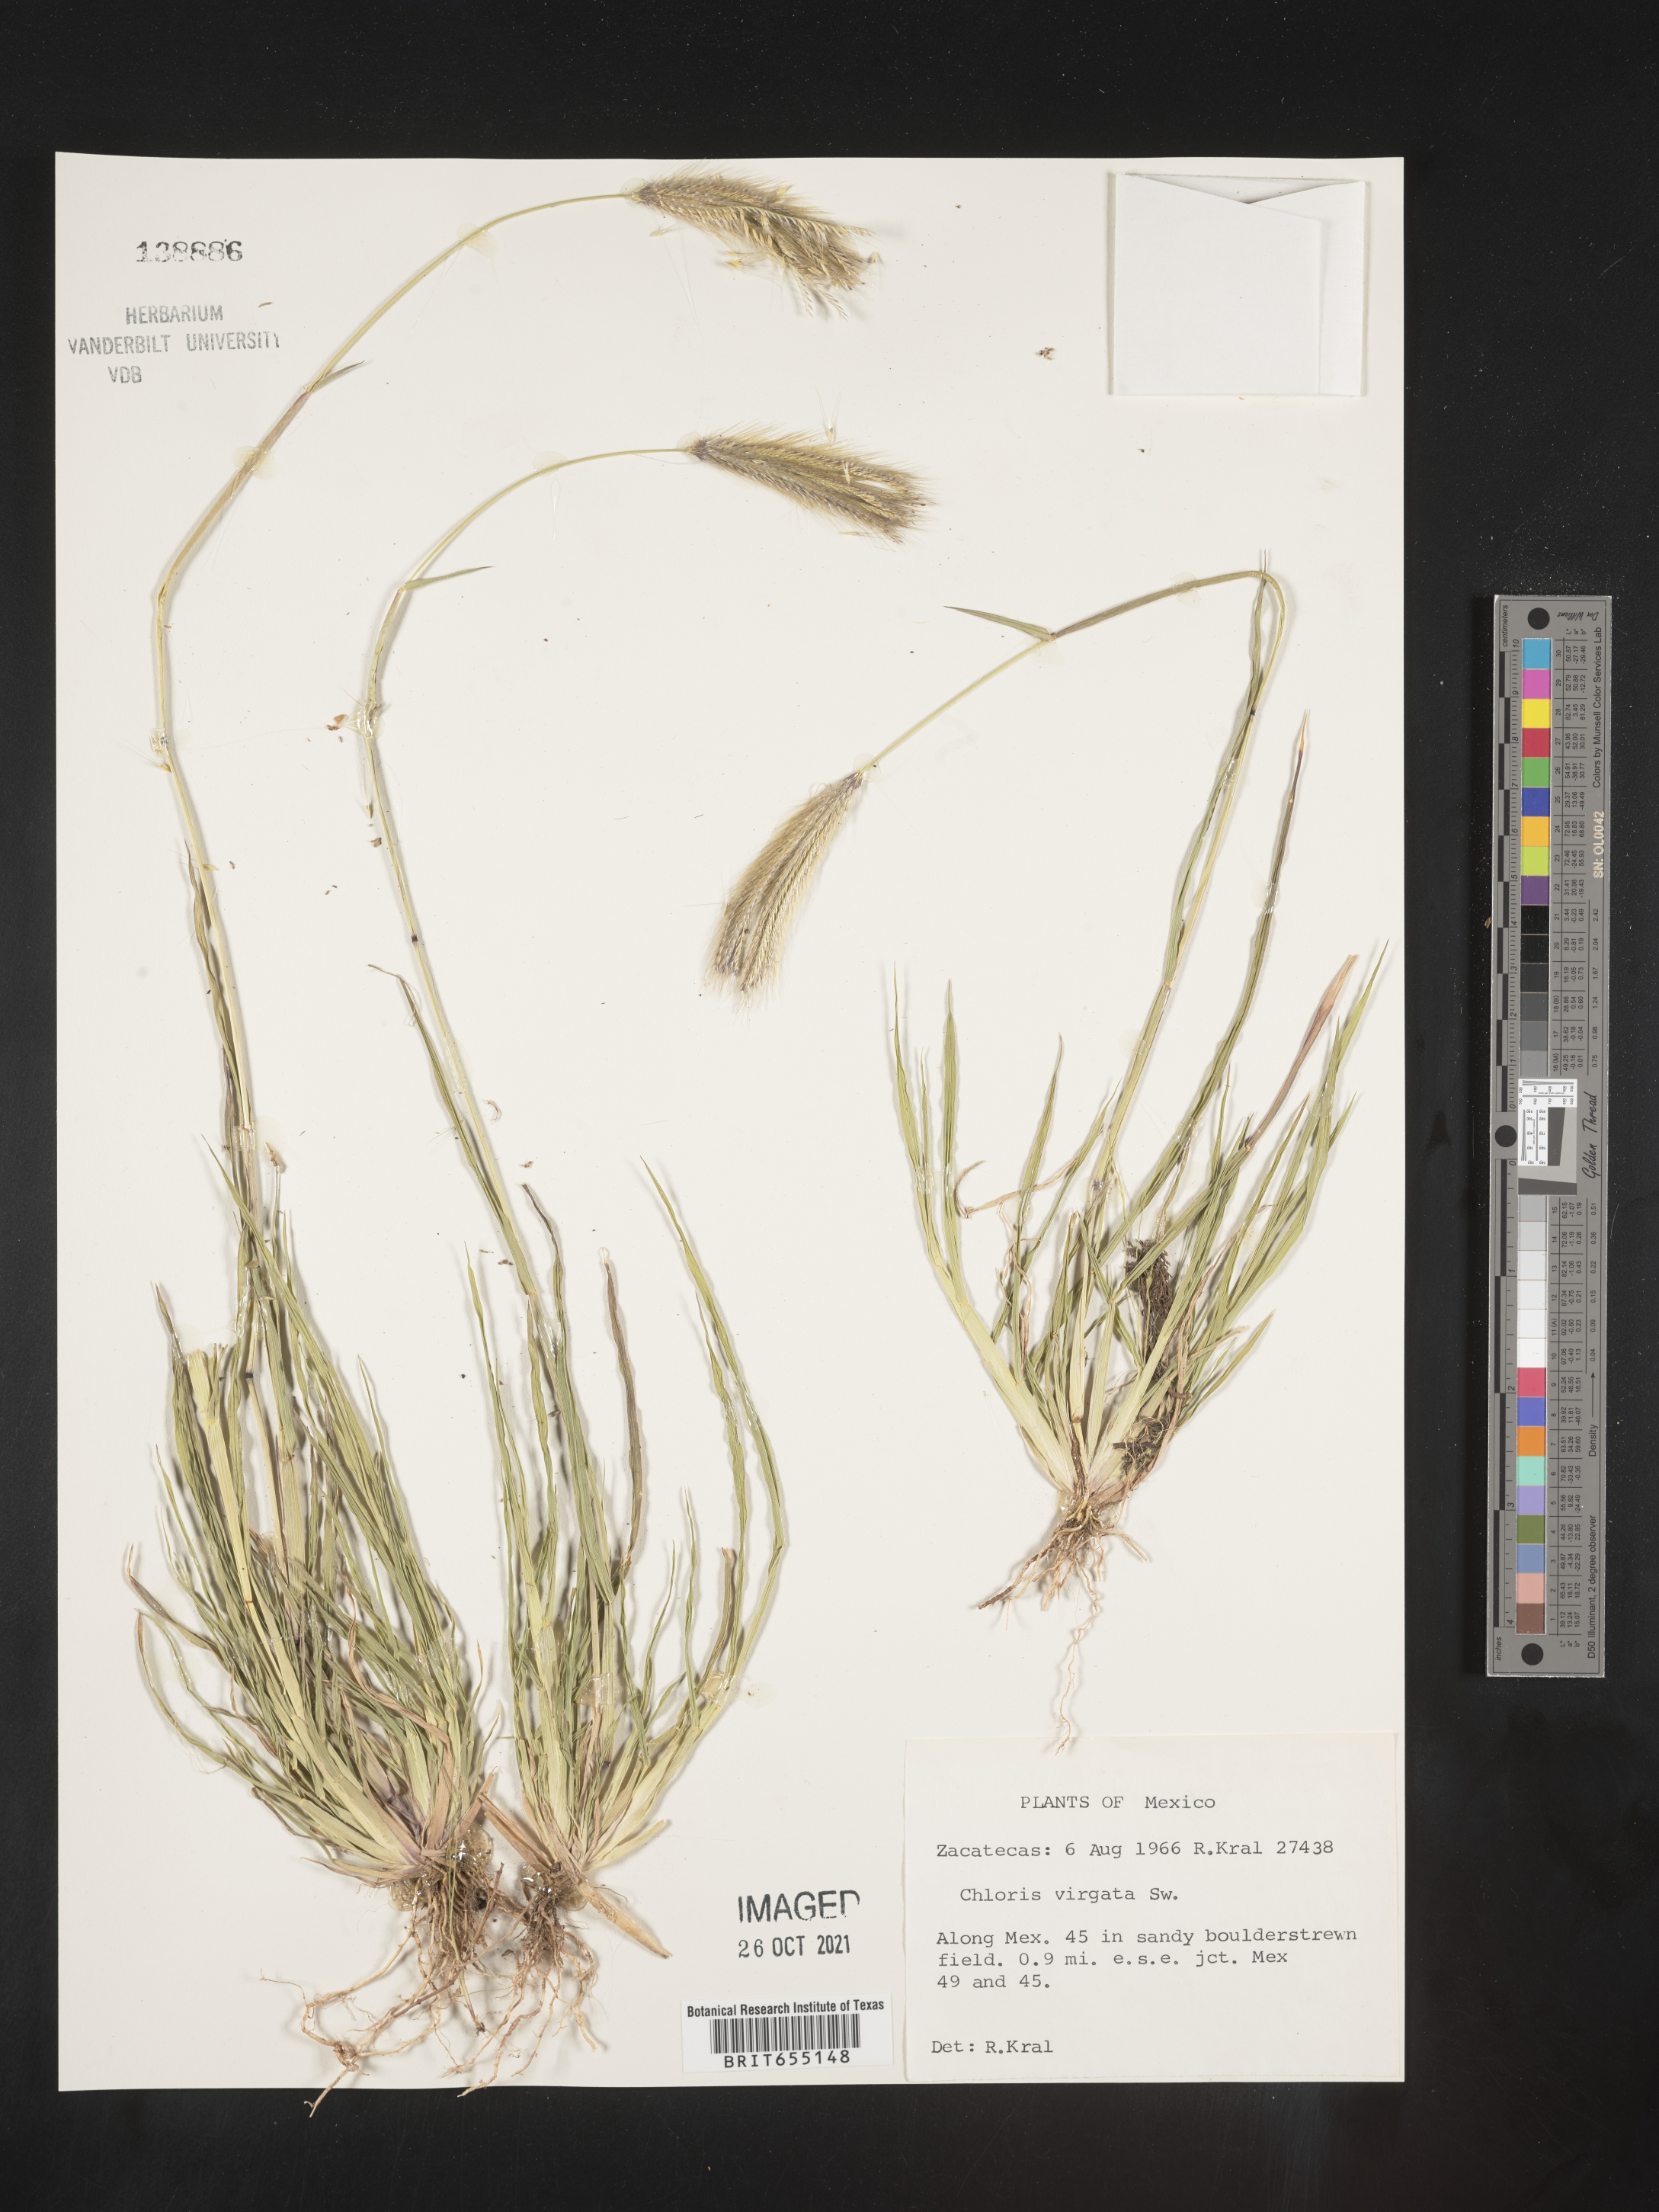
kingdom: Plantae
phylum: Tracheophyta
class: Liliopsida
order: Poales
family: Poaceae
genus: Chloris
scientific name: Chloris
